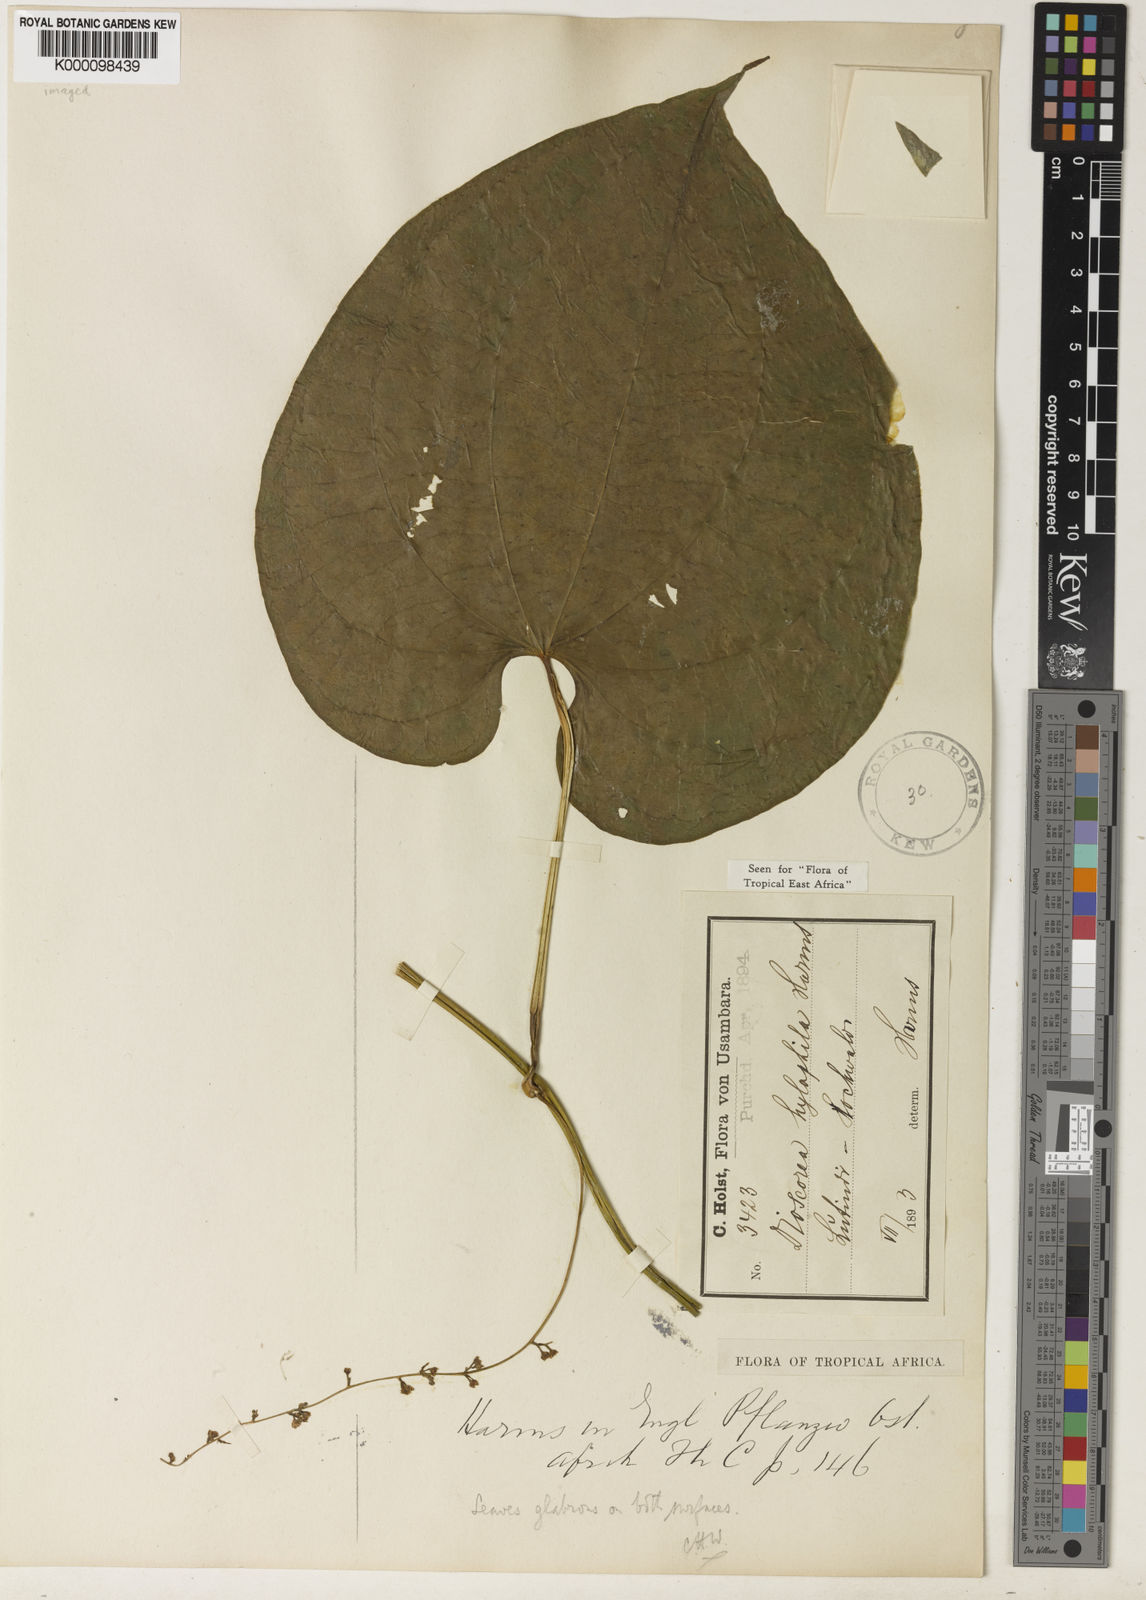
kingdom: Plantae
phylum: Tracheophyta
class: Liliopsida
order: Dioscoreales
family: Dioscoreaceae
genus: Dioscorea
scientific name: Dioscorea
